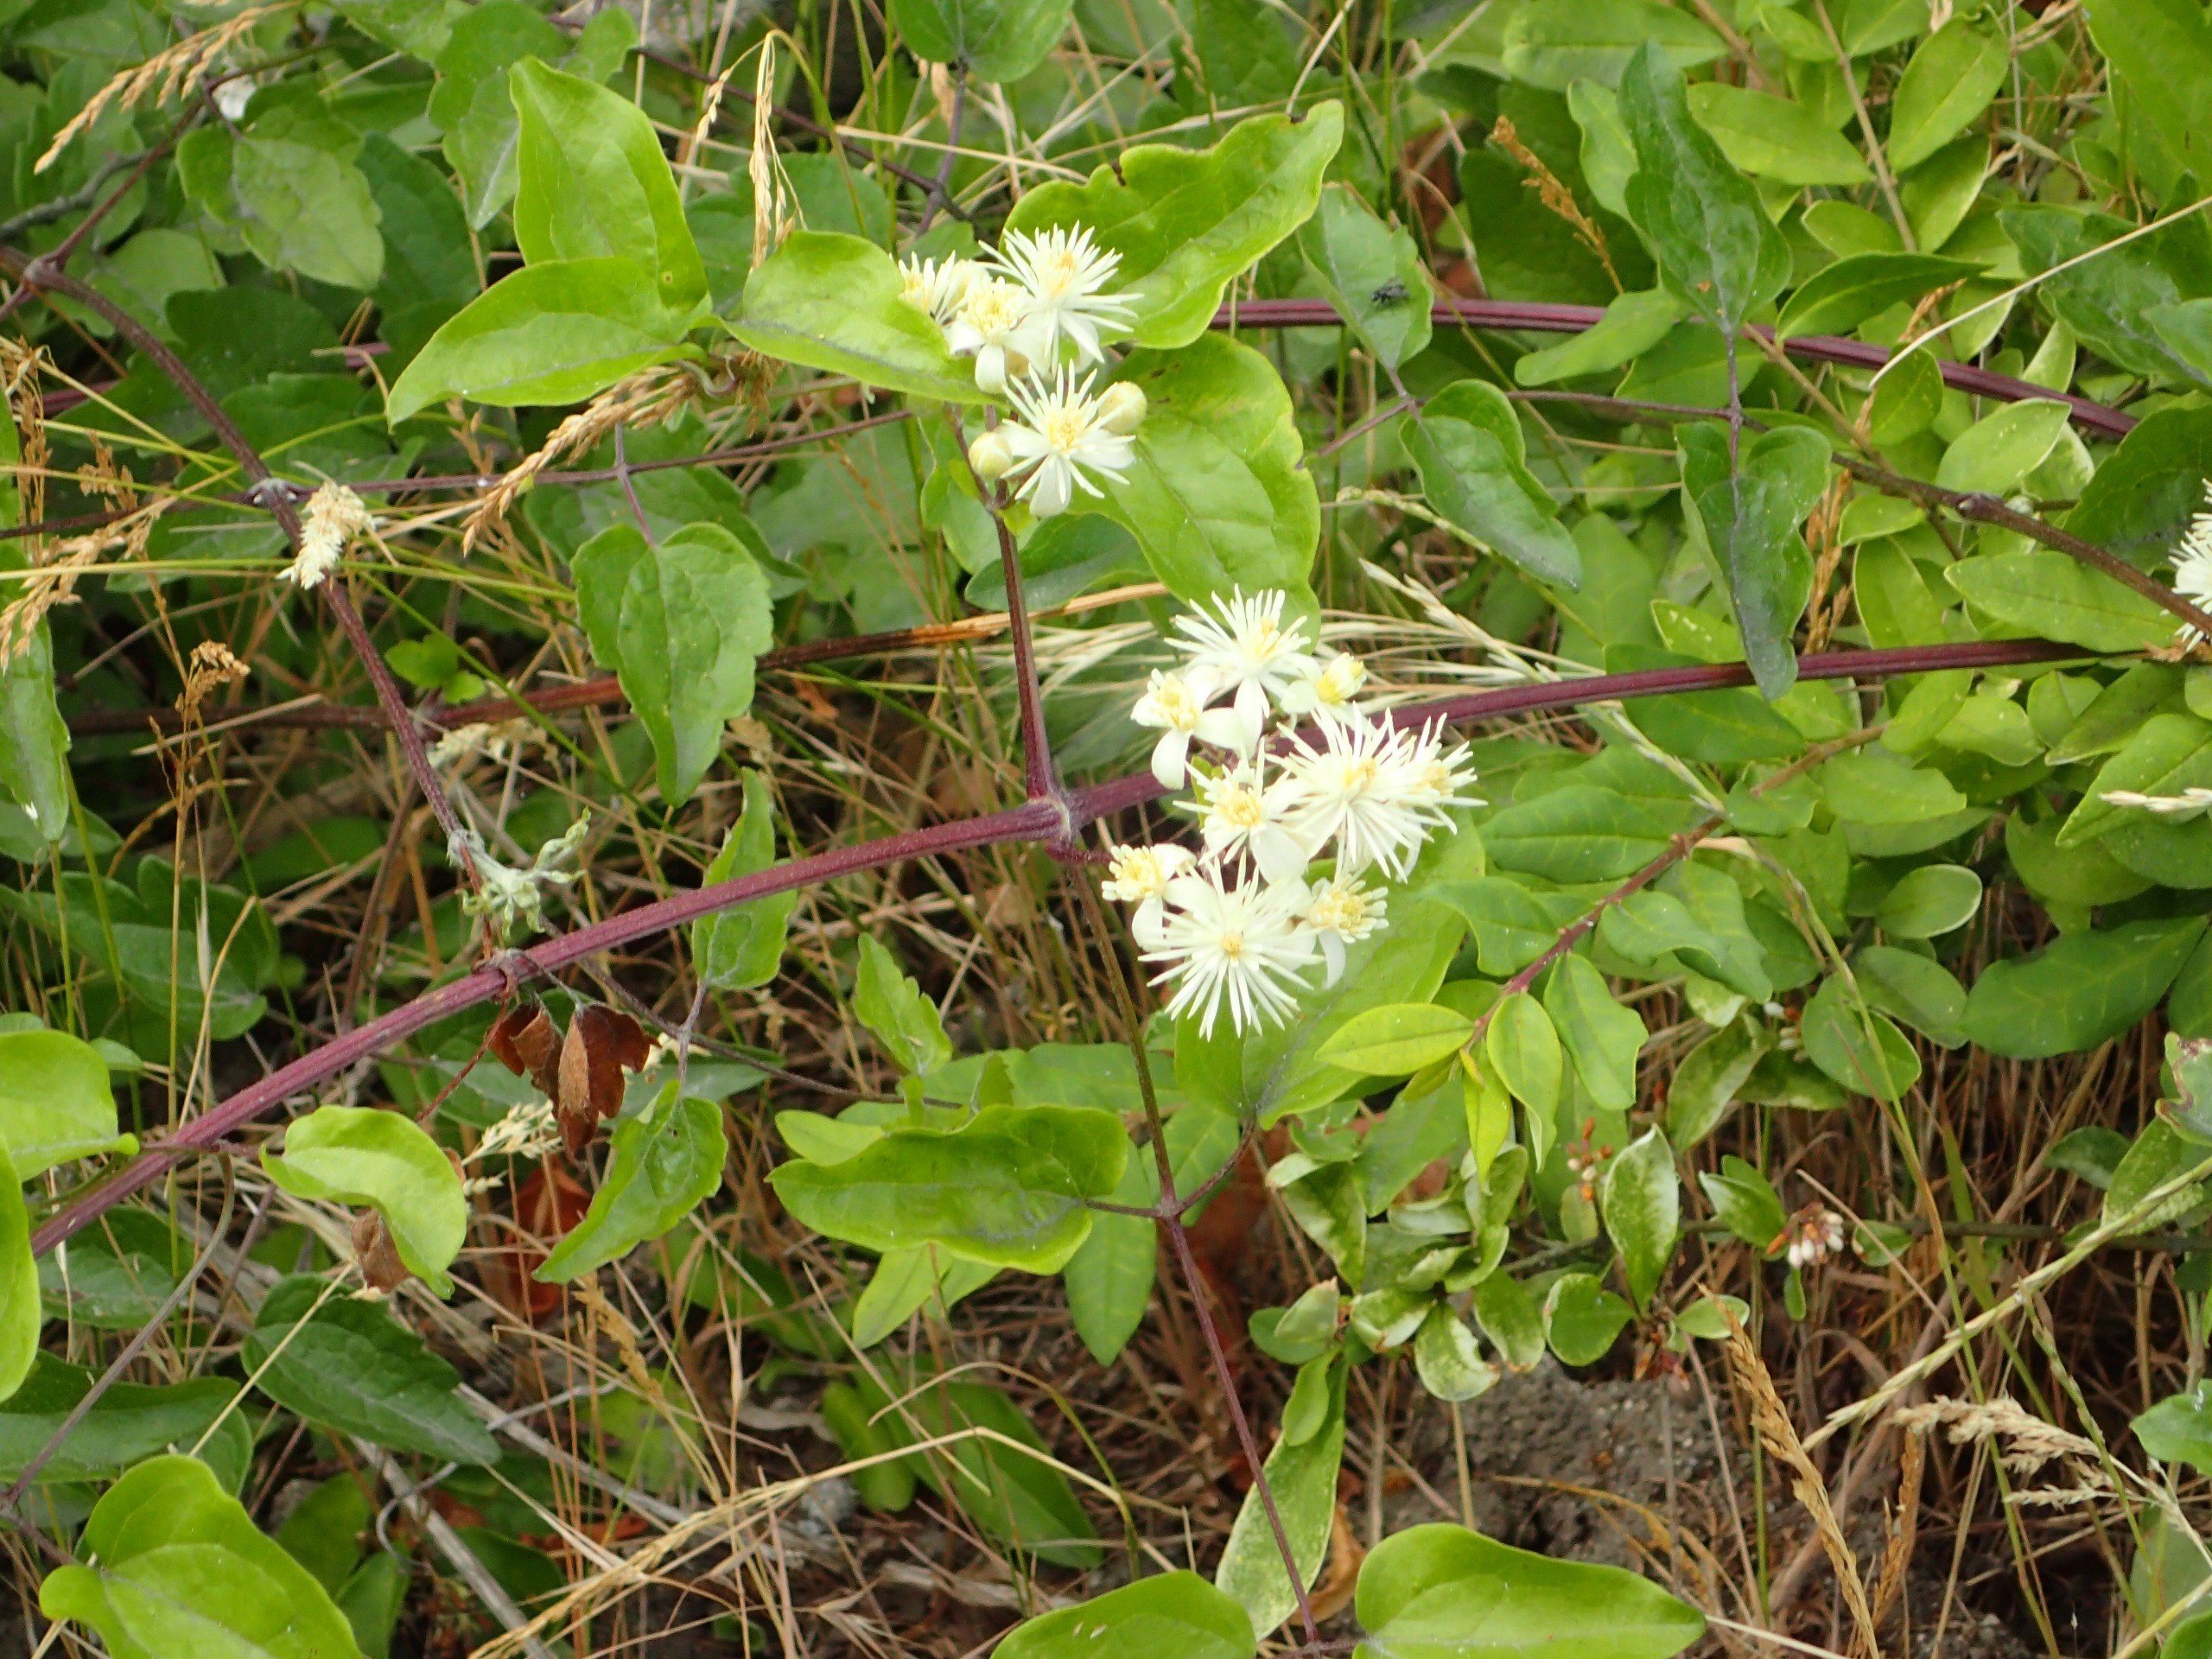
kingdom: Plantae
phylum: Tracheophyta
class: Magnoliopsida
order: Ranunculales
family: Ranunculaceae
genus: Clematis
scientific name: Clematis vitalba
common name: Skovranke
